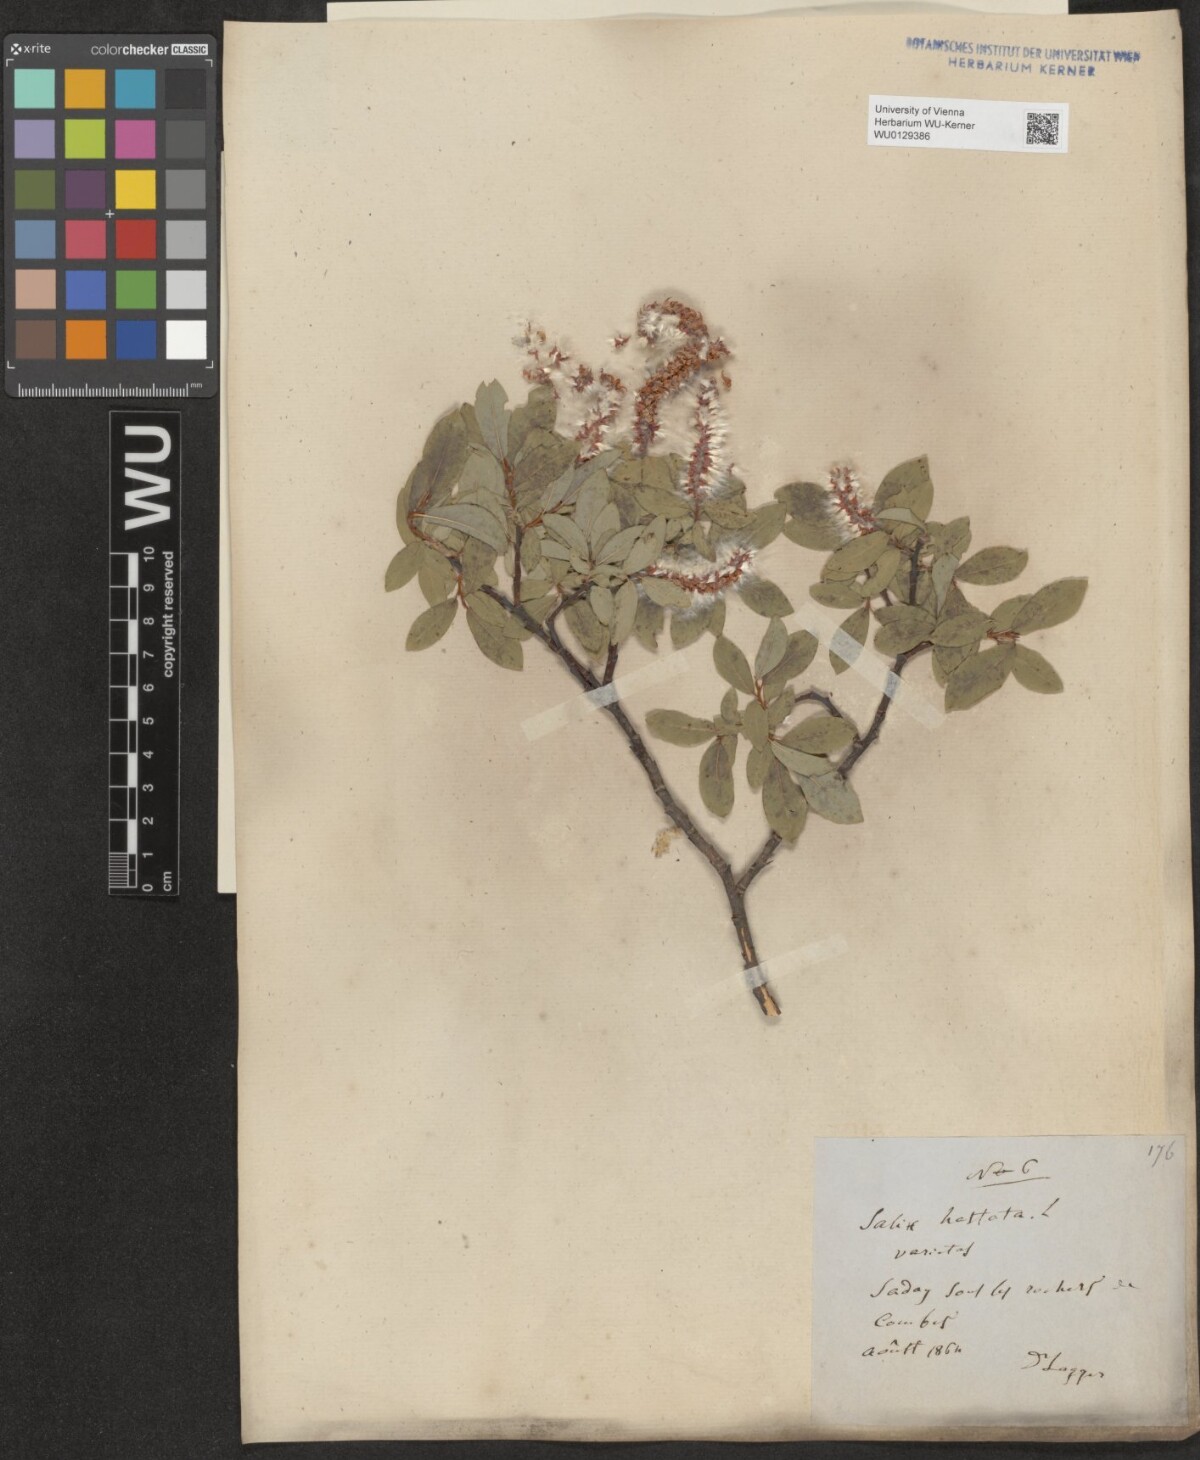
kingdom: Plantae
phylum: Tracheophyta
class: Magnoliopsida
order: Malpighiales
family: Salicaceae
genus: Salix
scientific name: Salix hastata
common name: Halberd willow
